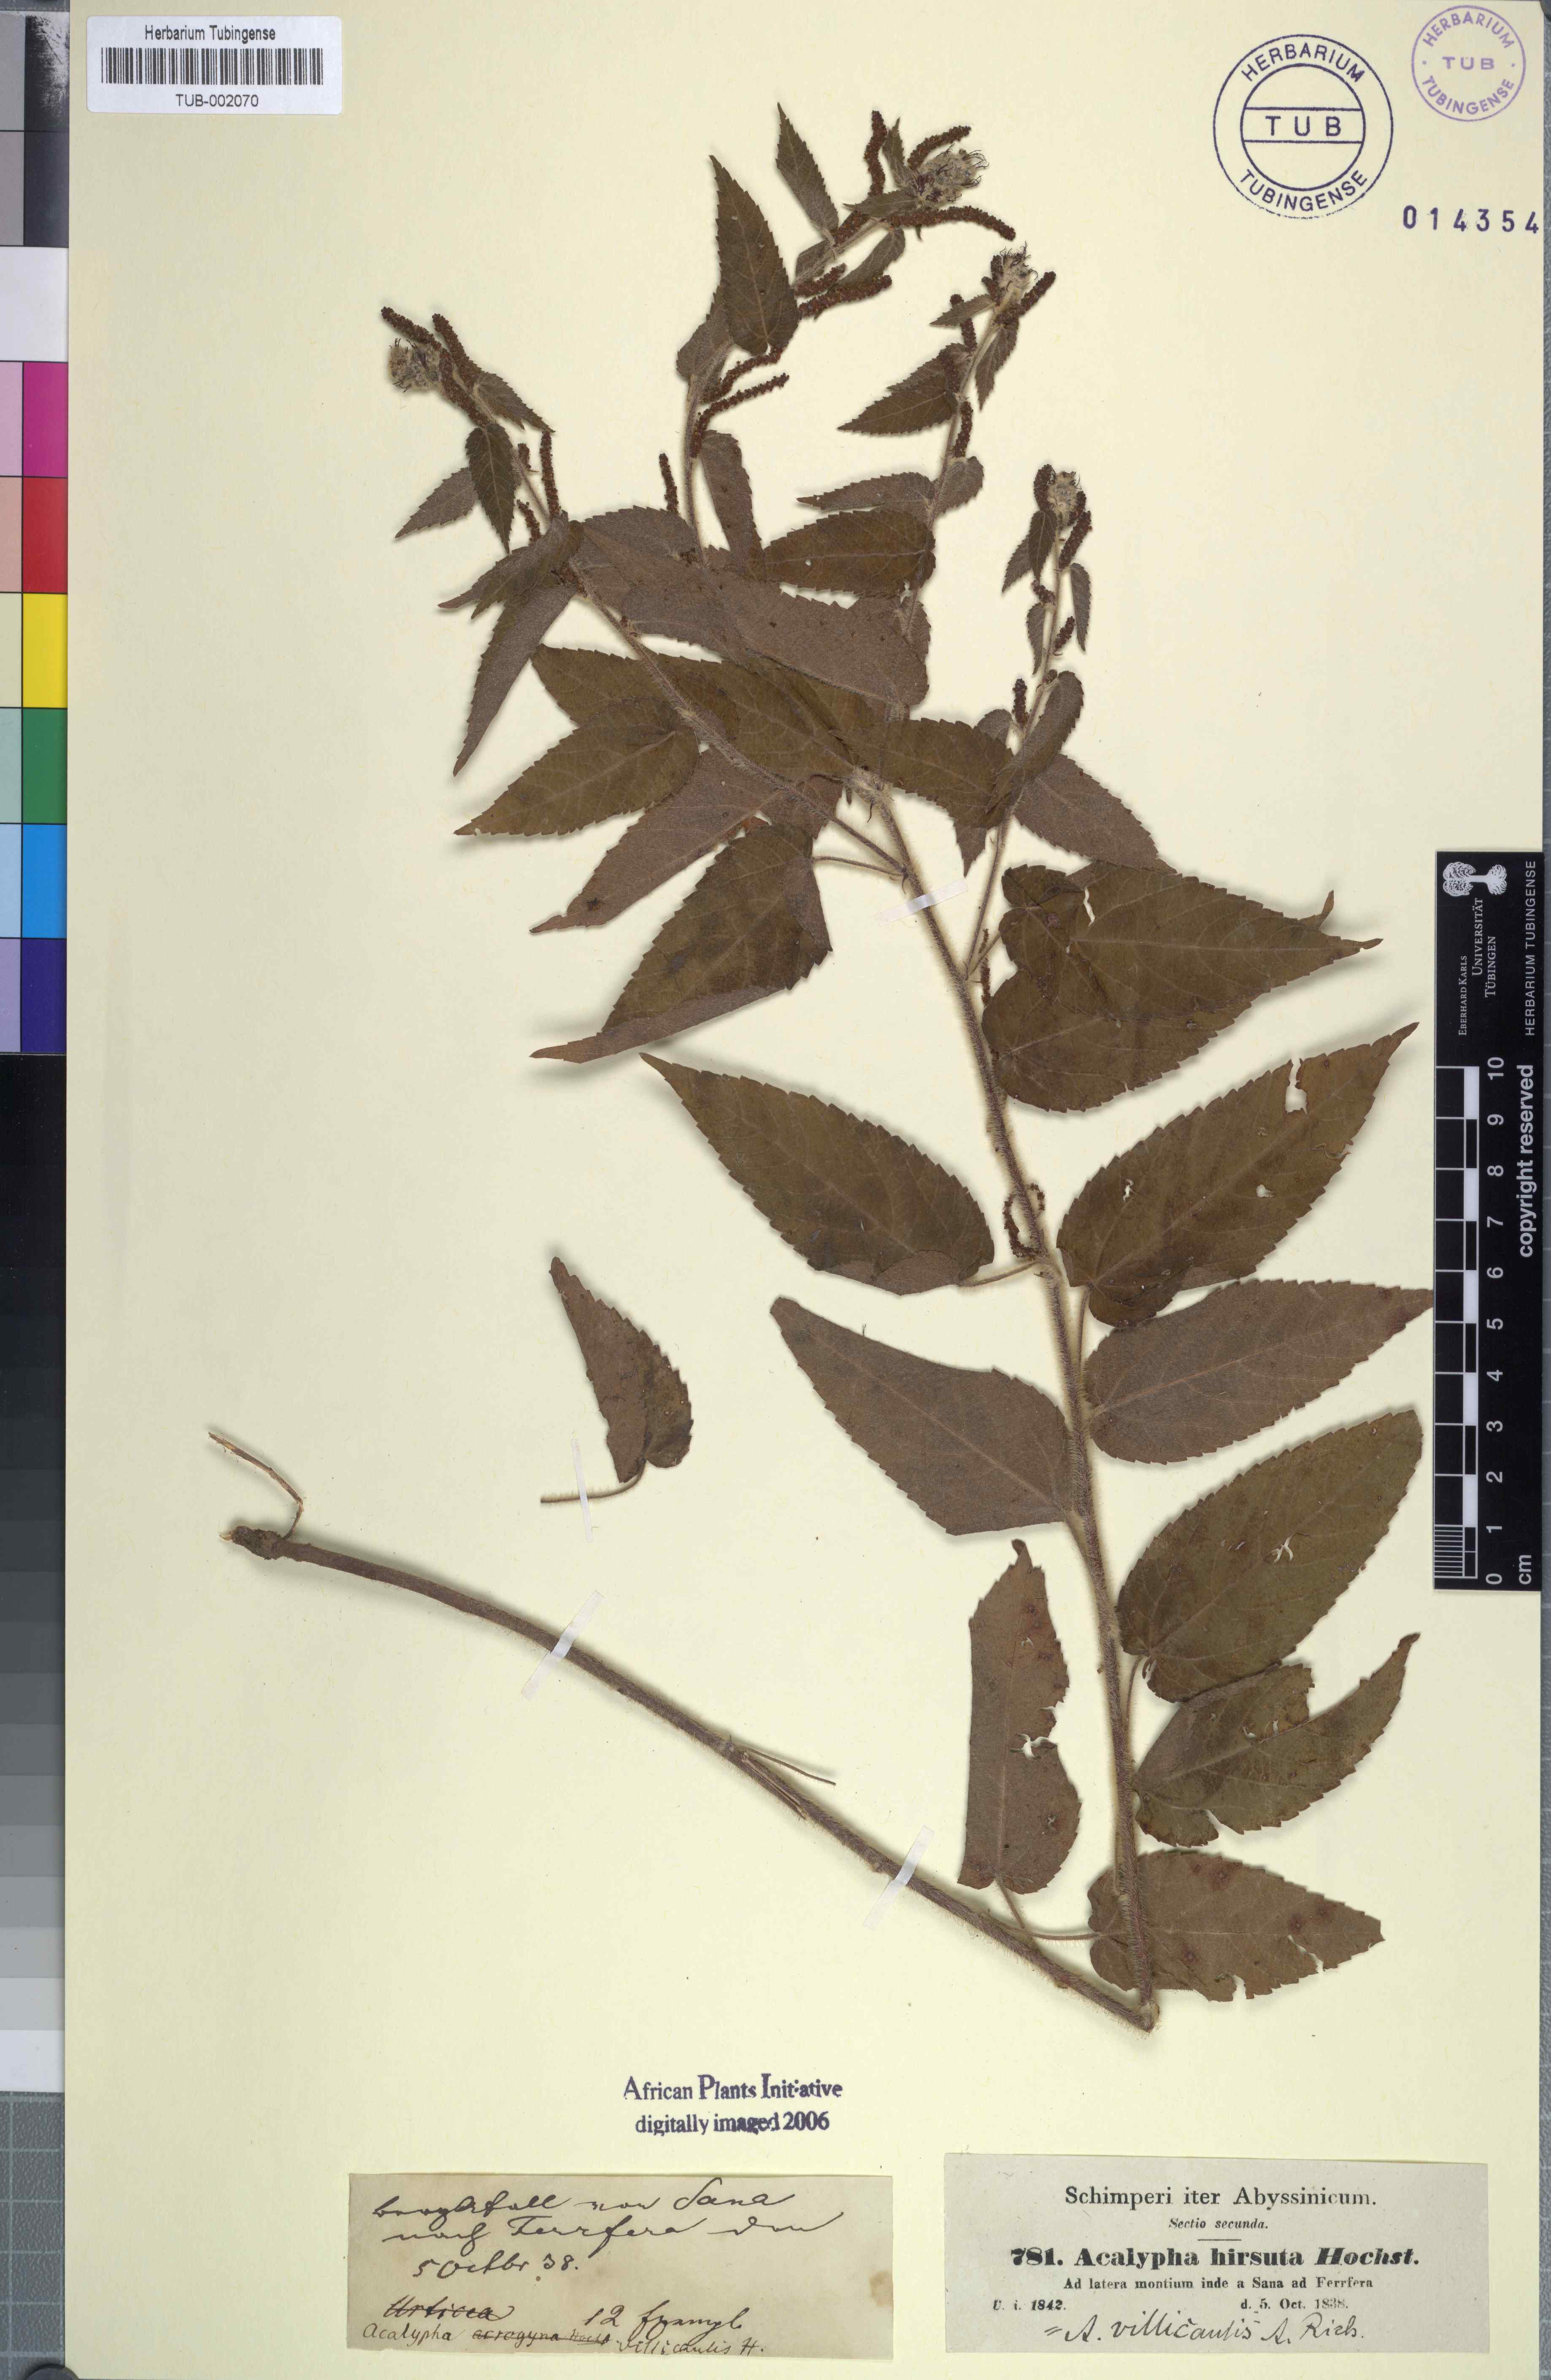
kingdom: Plantae
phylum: Tracheophyta
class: Magnoliopsida
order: Malpighiales
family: Euphorbiaceae
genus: Acalypha
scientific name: Acalypha petiolaris
